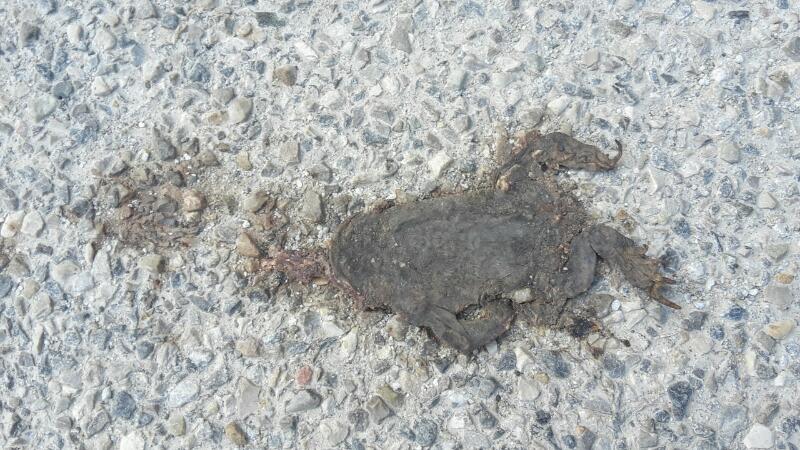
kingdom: Animalia
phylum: Chordata
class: Amphibia
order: Anura
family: Bufonidae
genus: Bufo
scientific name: Bufo bufo
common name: Common toad
